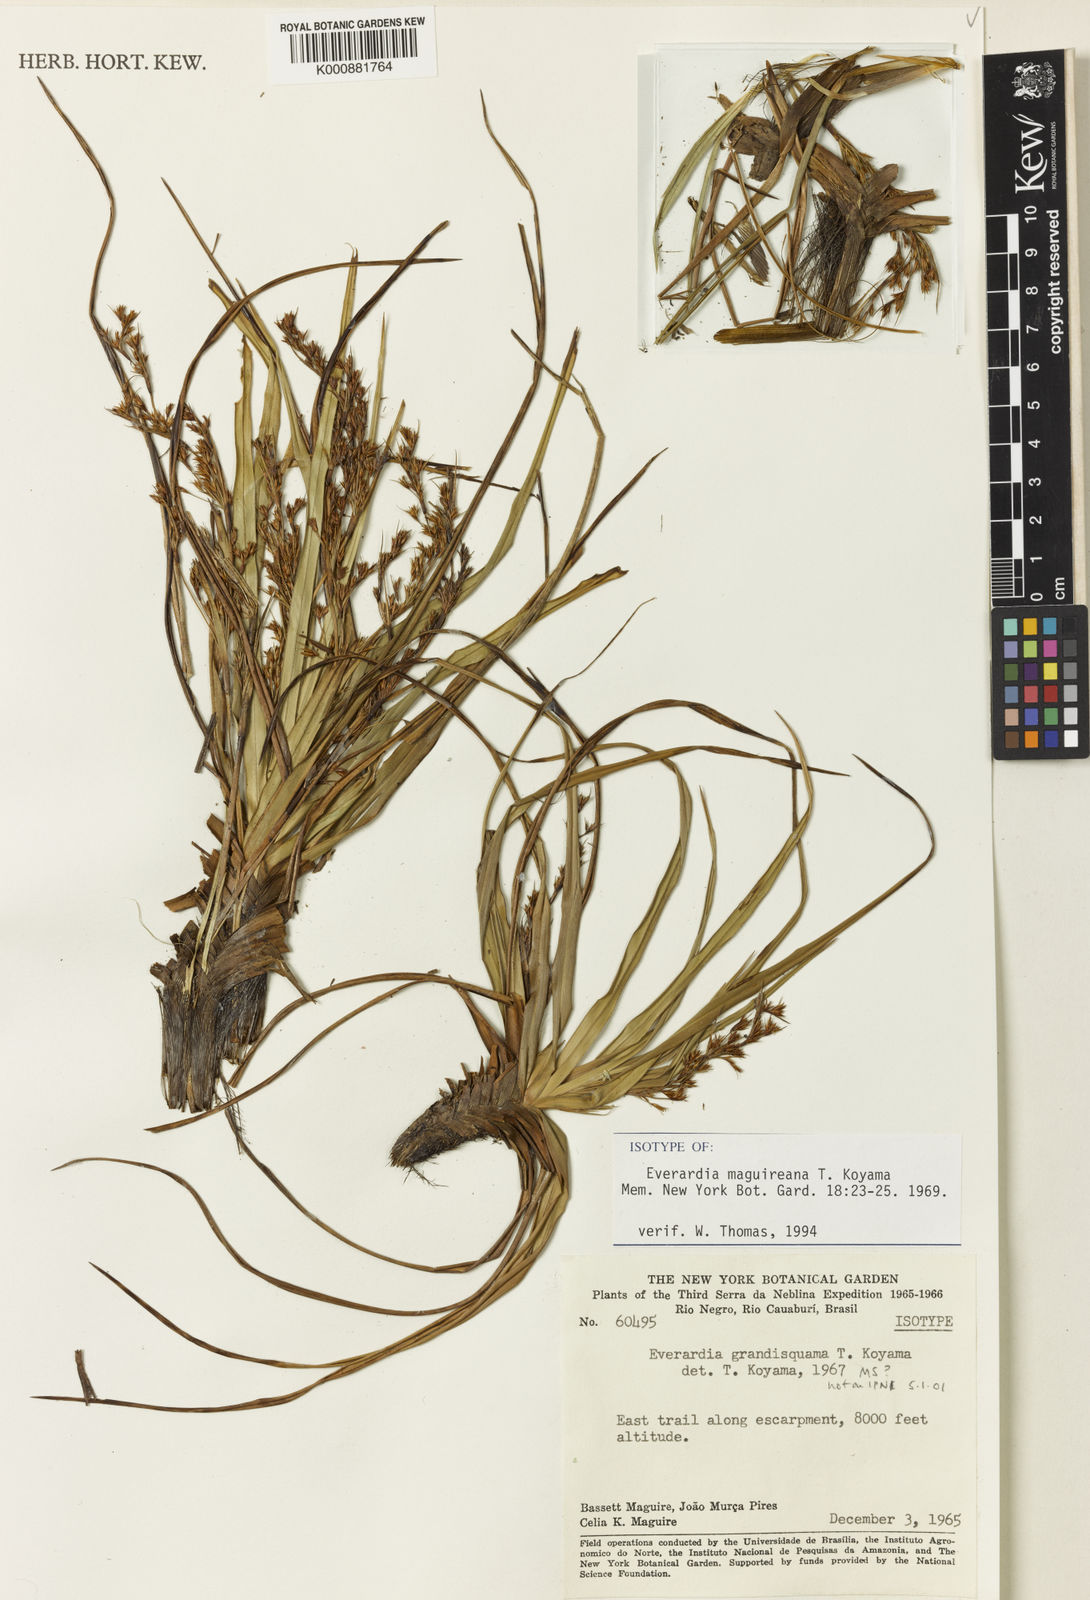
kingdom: Plantae
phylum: Tracheophyta
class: Liliopsida
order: Poales
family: Cyperaceae
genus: Cephalocarpus
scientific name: Cephalocarpus maguireanus
